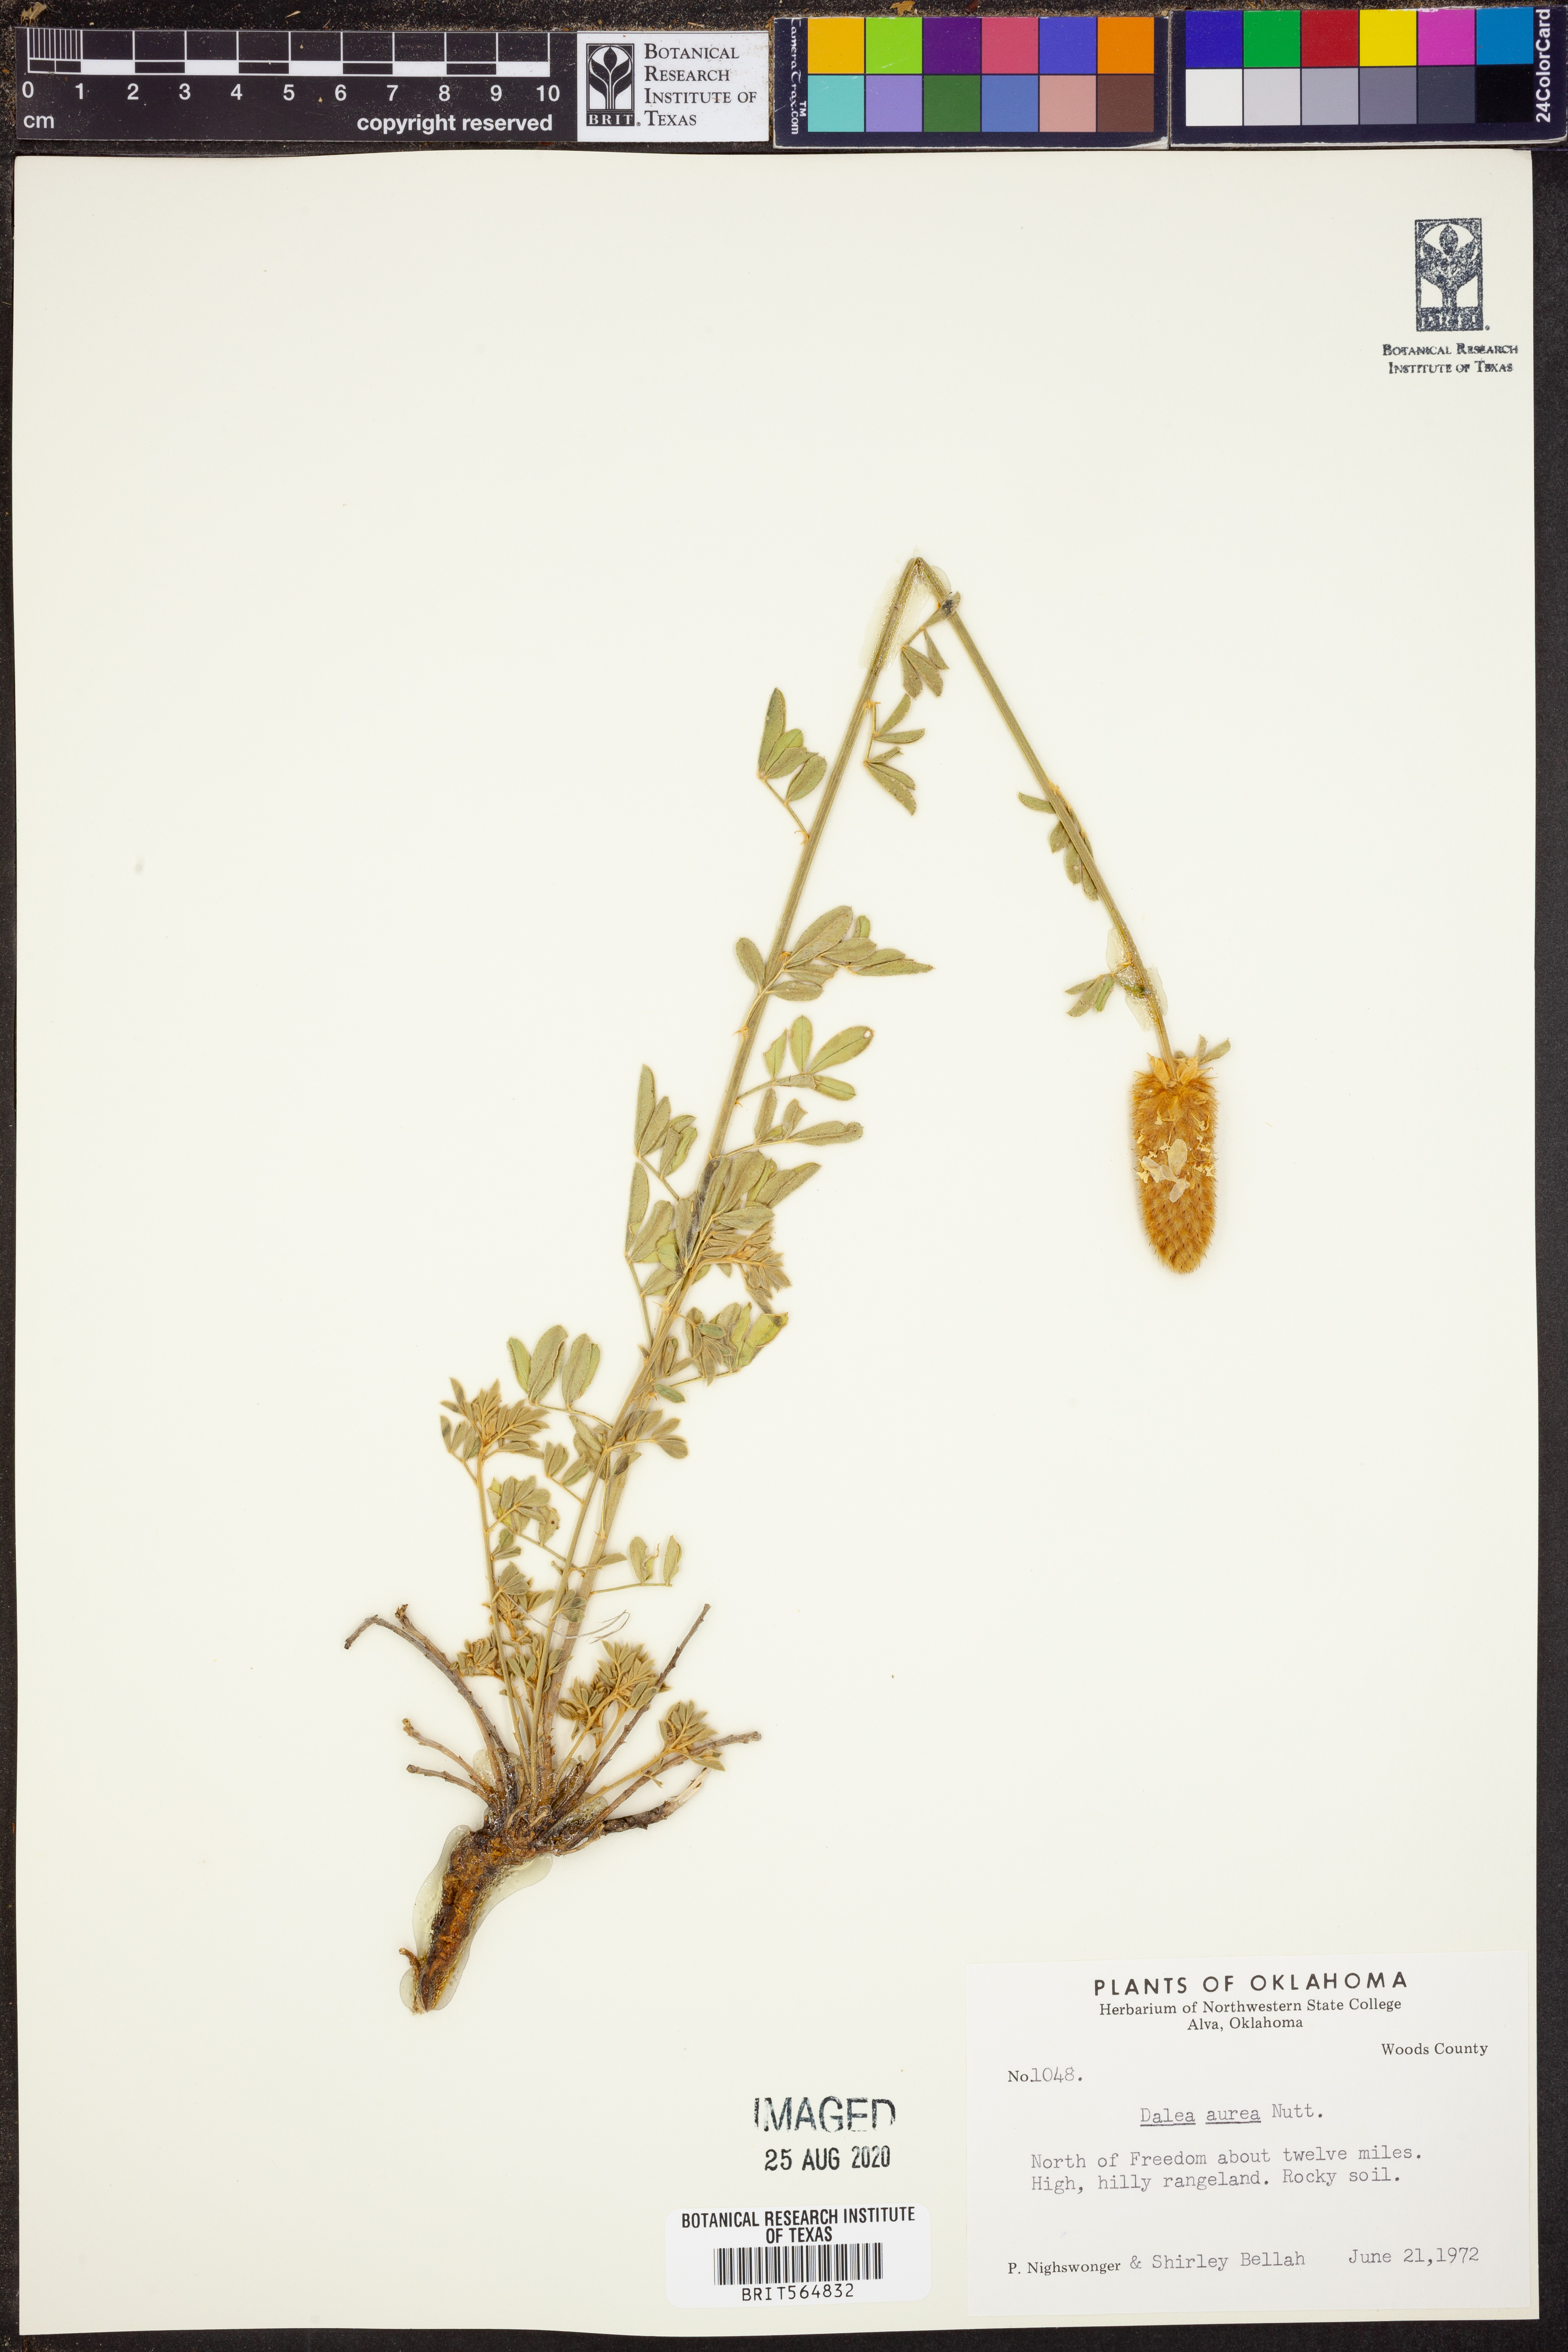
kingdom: Plantae
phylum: Tracheophyta
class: Magnoliopsida
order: Fabales
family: Fabaceae
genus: Dalea
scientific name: Dalea aurea
